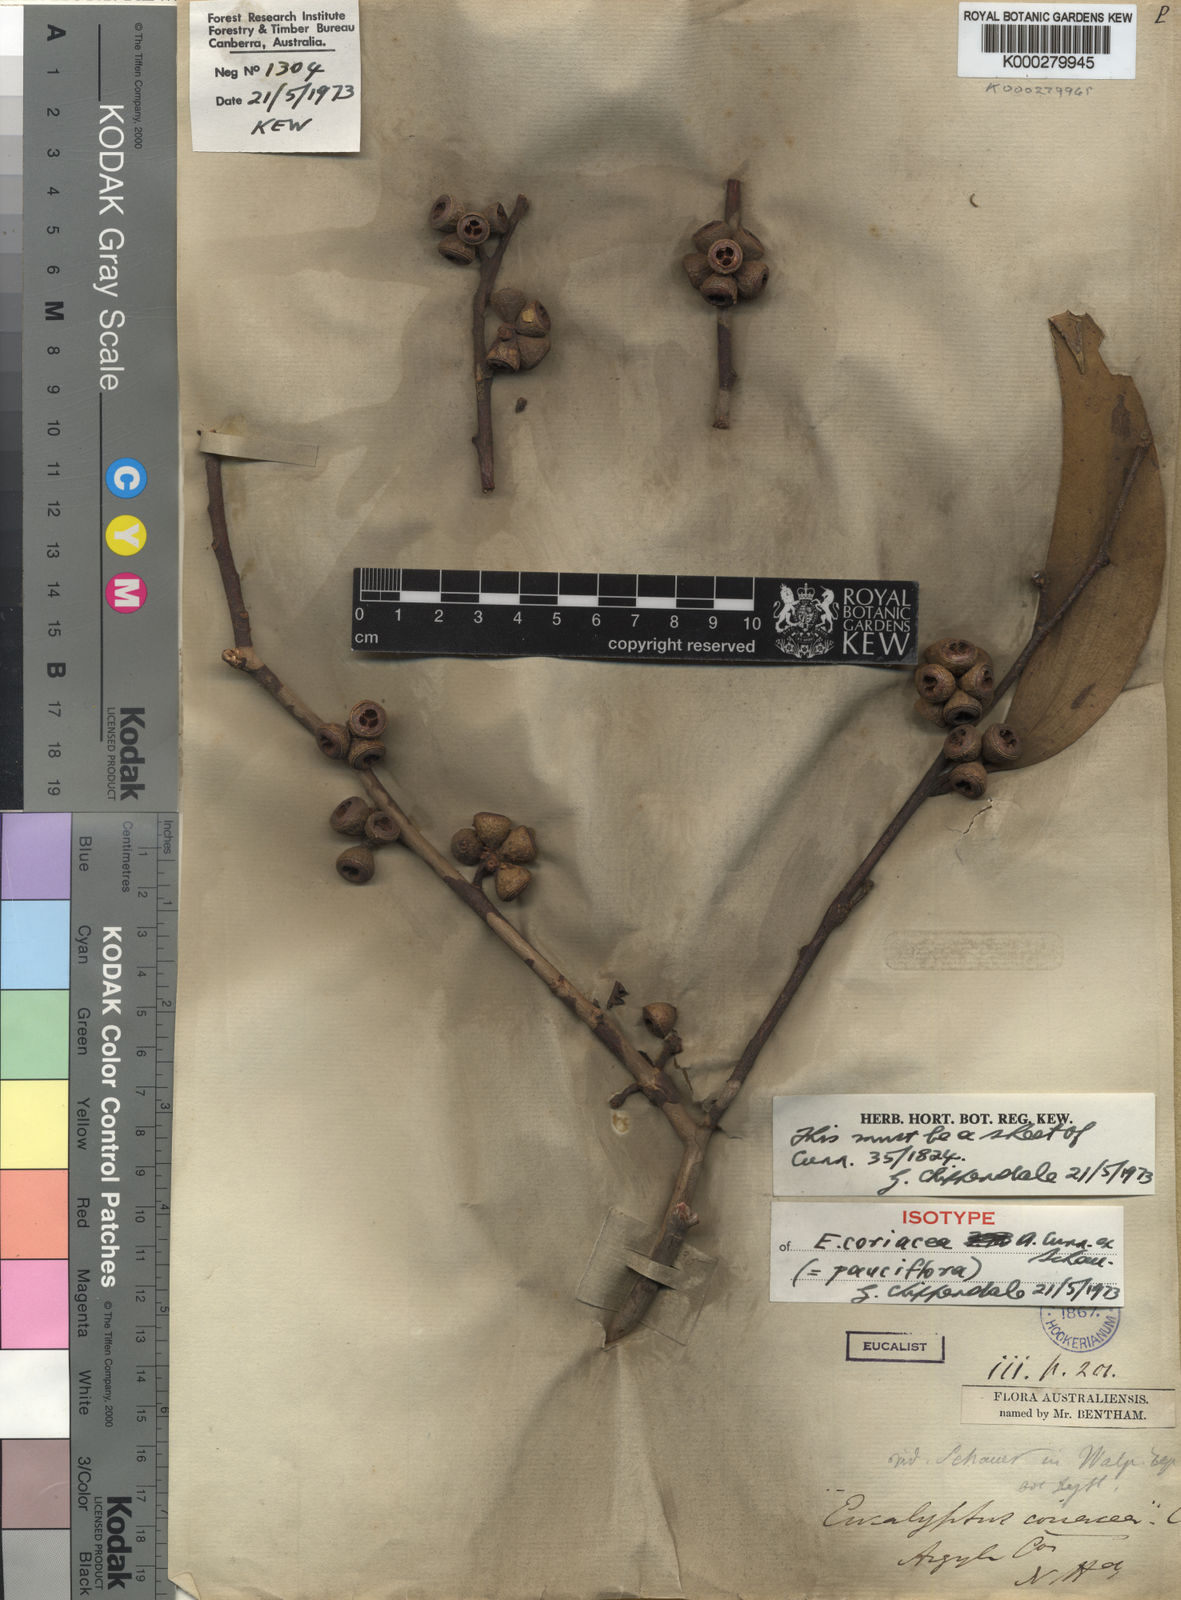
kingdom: Plantae
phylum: Tracheophyta
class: Magnoliopsida
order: Myrtales
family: Myrtaceae
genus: Eucalyptus
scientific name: Eucalyptus pauciflora
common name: Snow gum
